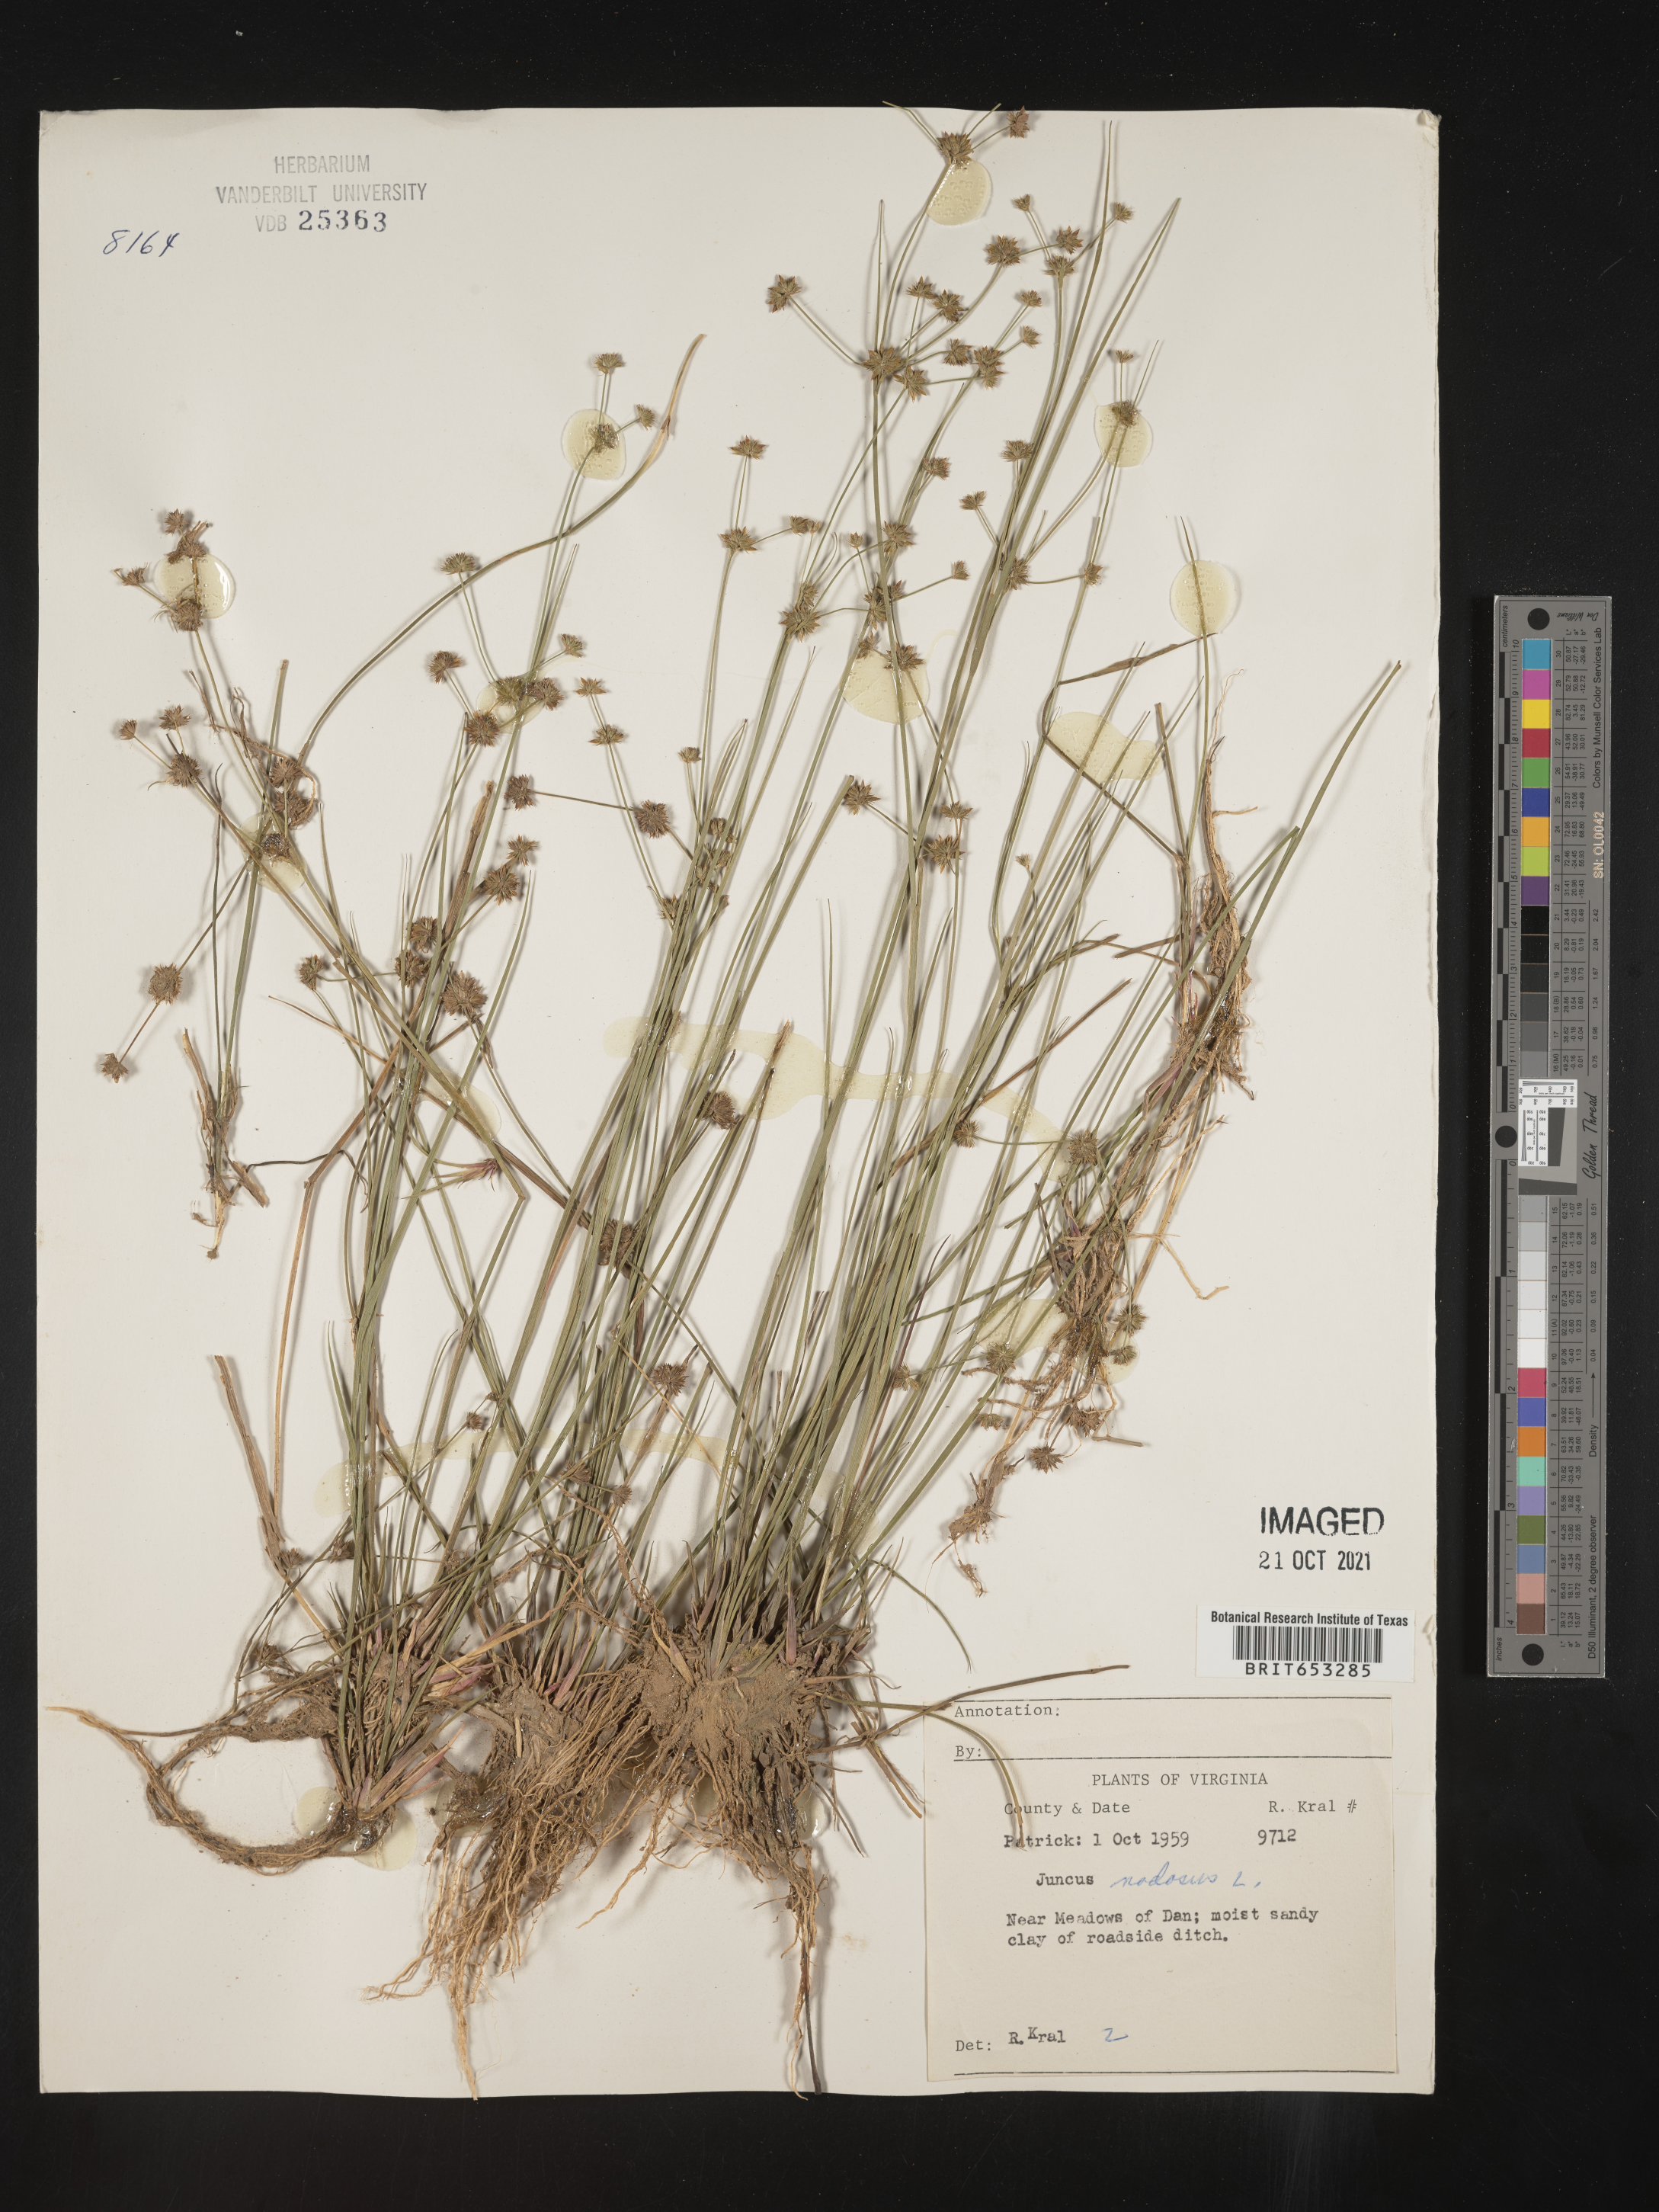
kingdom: Plantae
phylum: Tracheophyta
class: Liliopsida
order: Poales
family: Juncaceae
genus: Juncus
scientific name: Juncus nodosus
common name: Knotted rush
